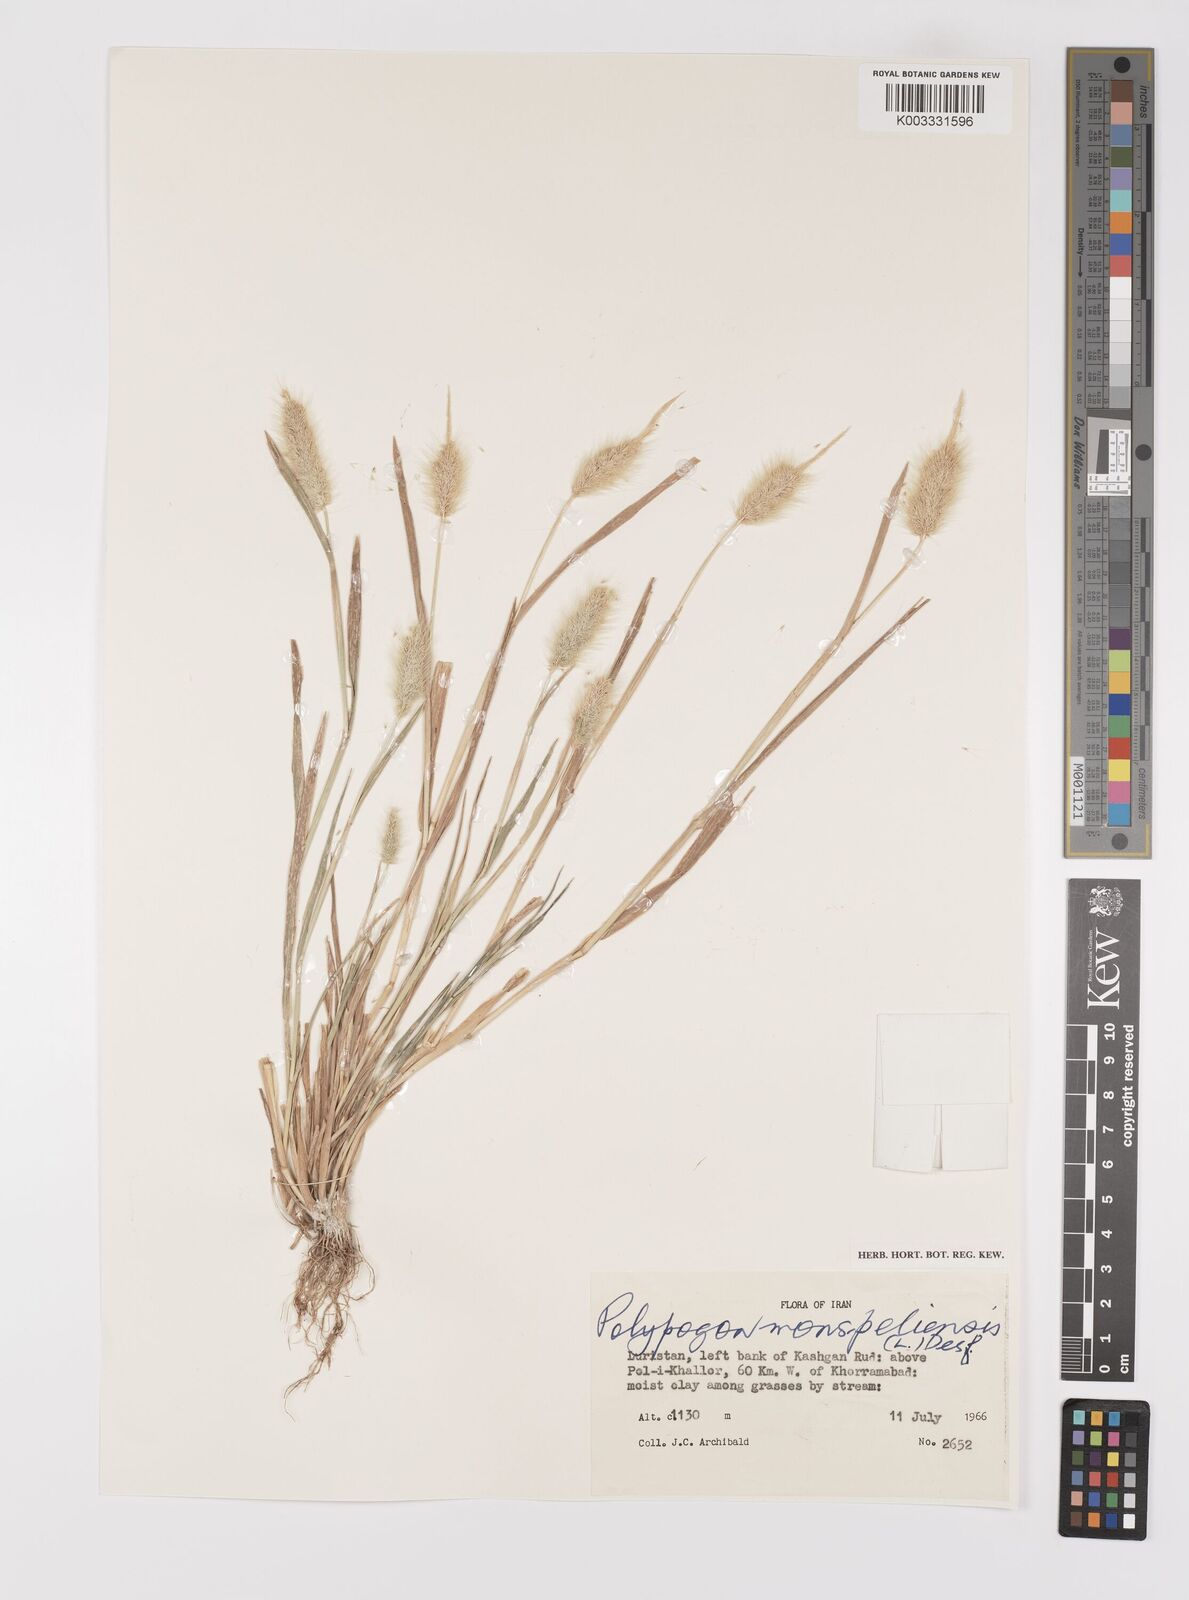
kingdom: Plantae
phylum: Tracheophyta
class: Liliopsida
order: Poales
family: Poaceae
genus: Polypogon
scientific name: Polypogon monspeliensis
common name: Annual rabbitsfoot grass
